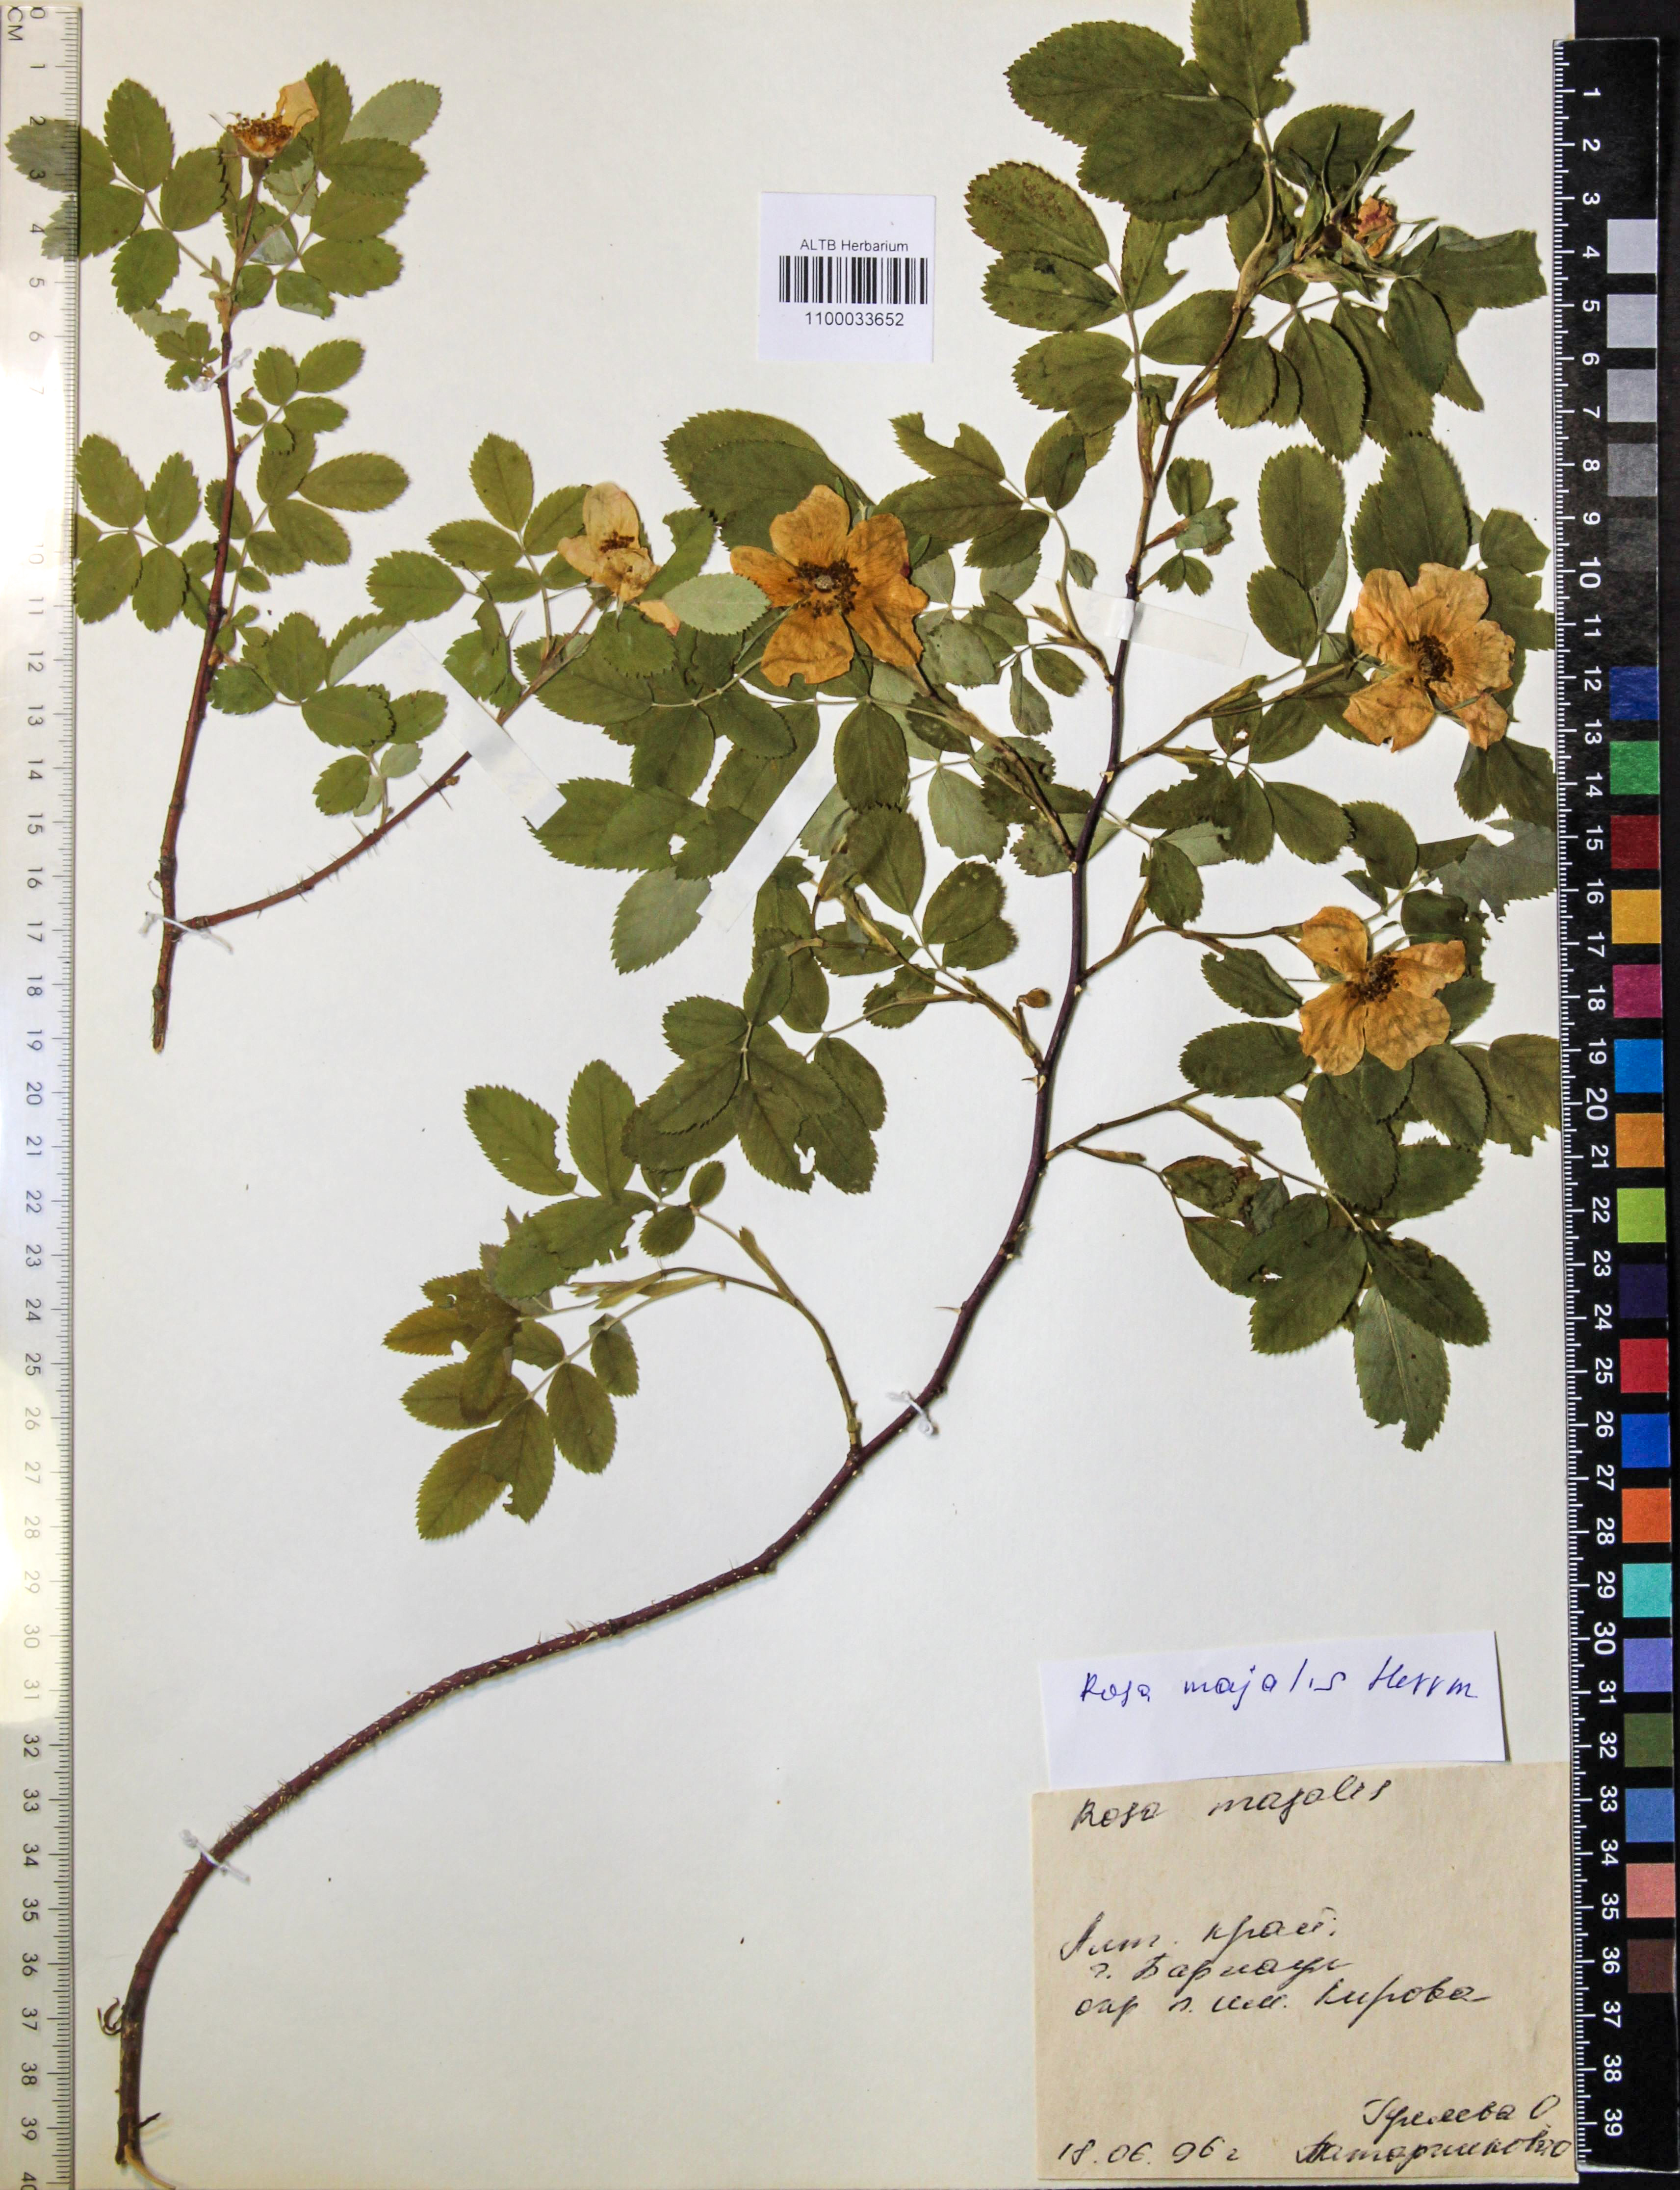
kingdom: Plantae
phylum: Tracheophyta
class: Magnoliopsida
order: Rosales
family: Rosaceae
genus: Rosa
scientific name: Rosa majalis
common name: Cinnamon rose
